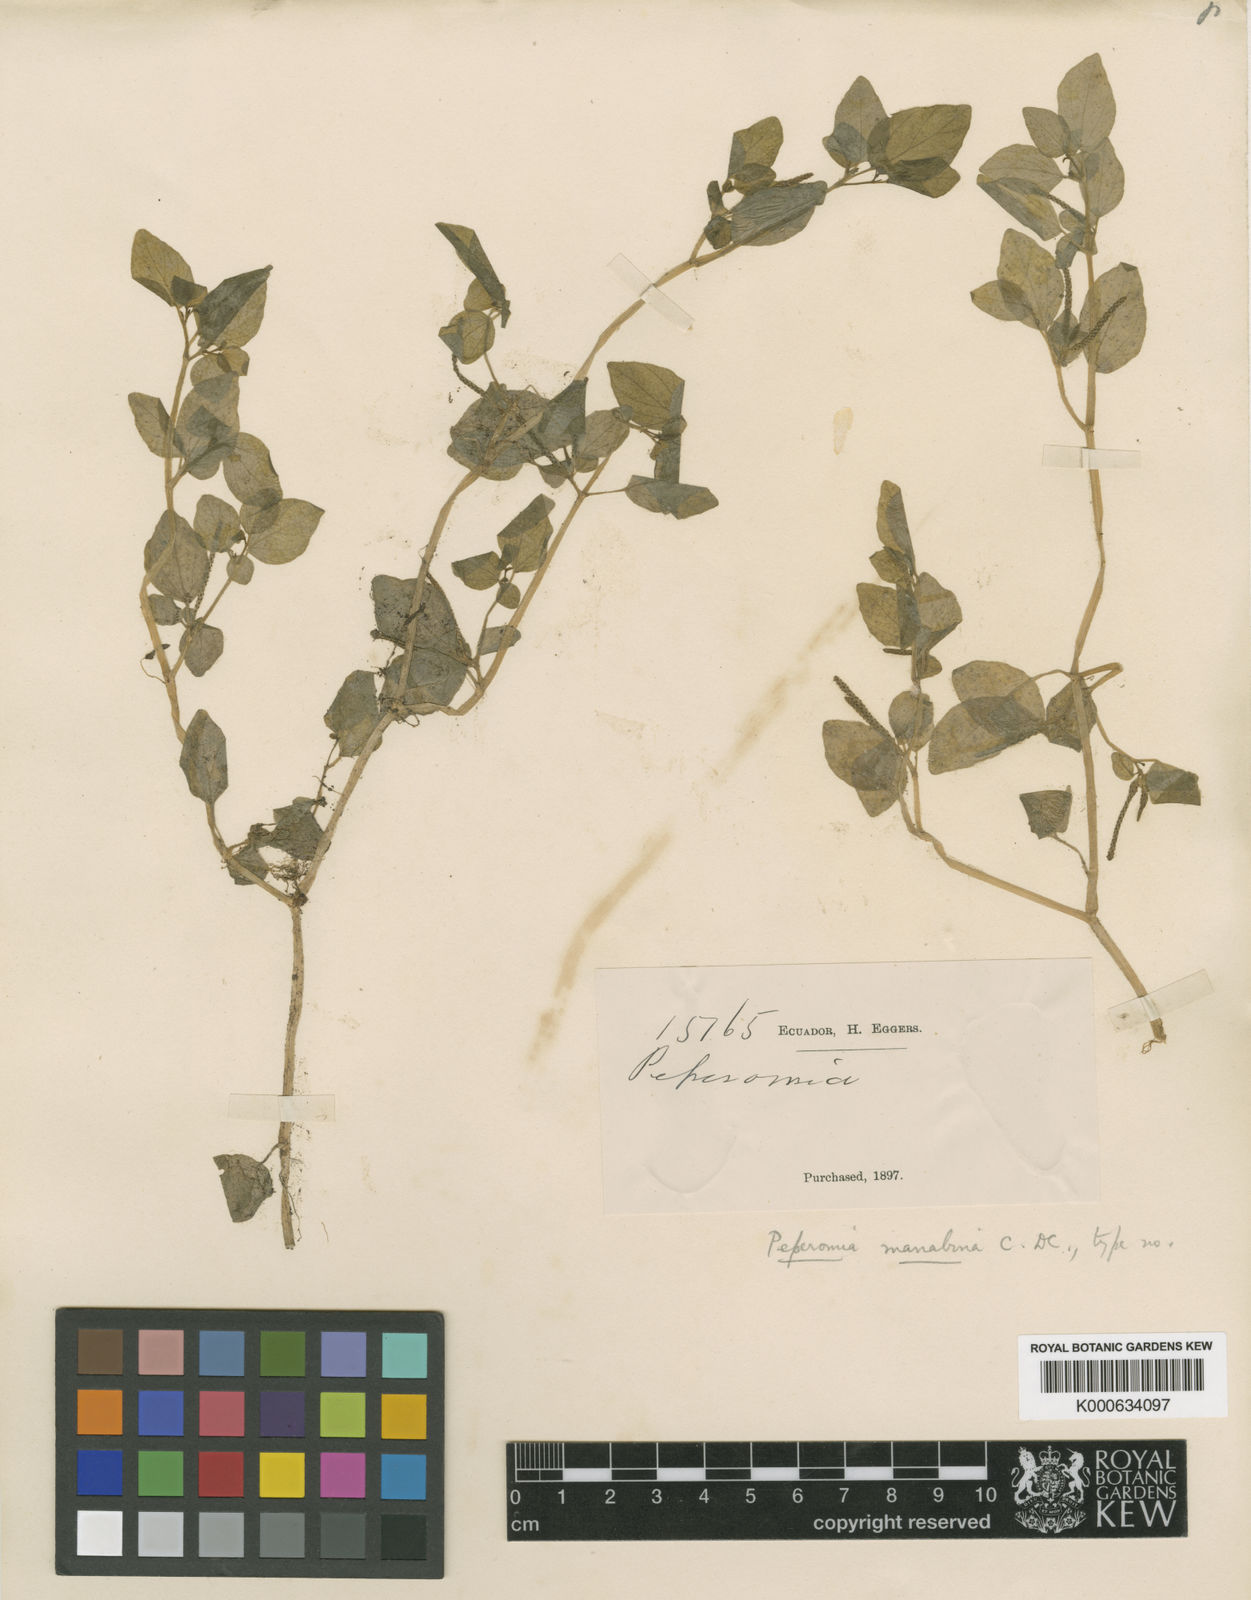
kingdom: Plantae
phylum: Tracheophyta
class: Magnoliopsida
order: Piperales
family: Piperaceae
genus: Peperomia
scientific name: Peperomia manabina
